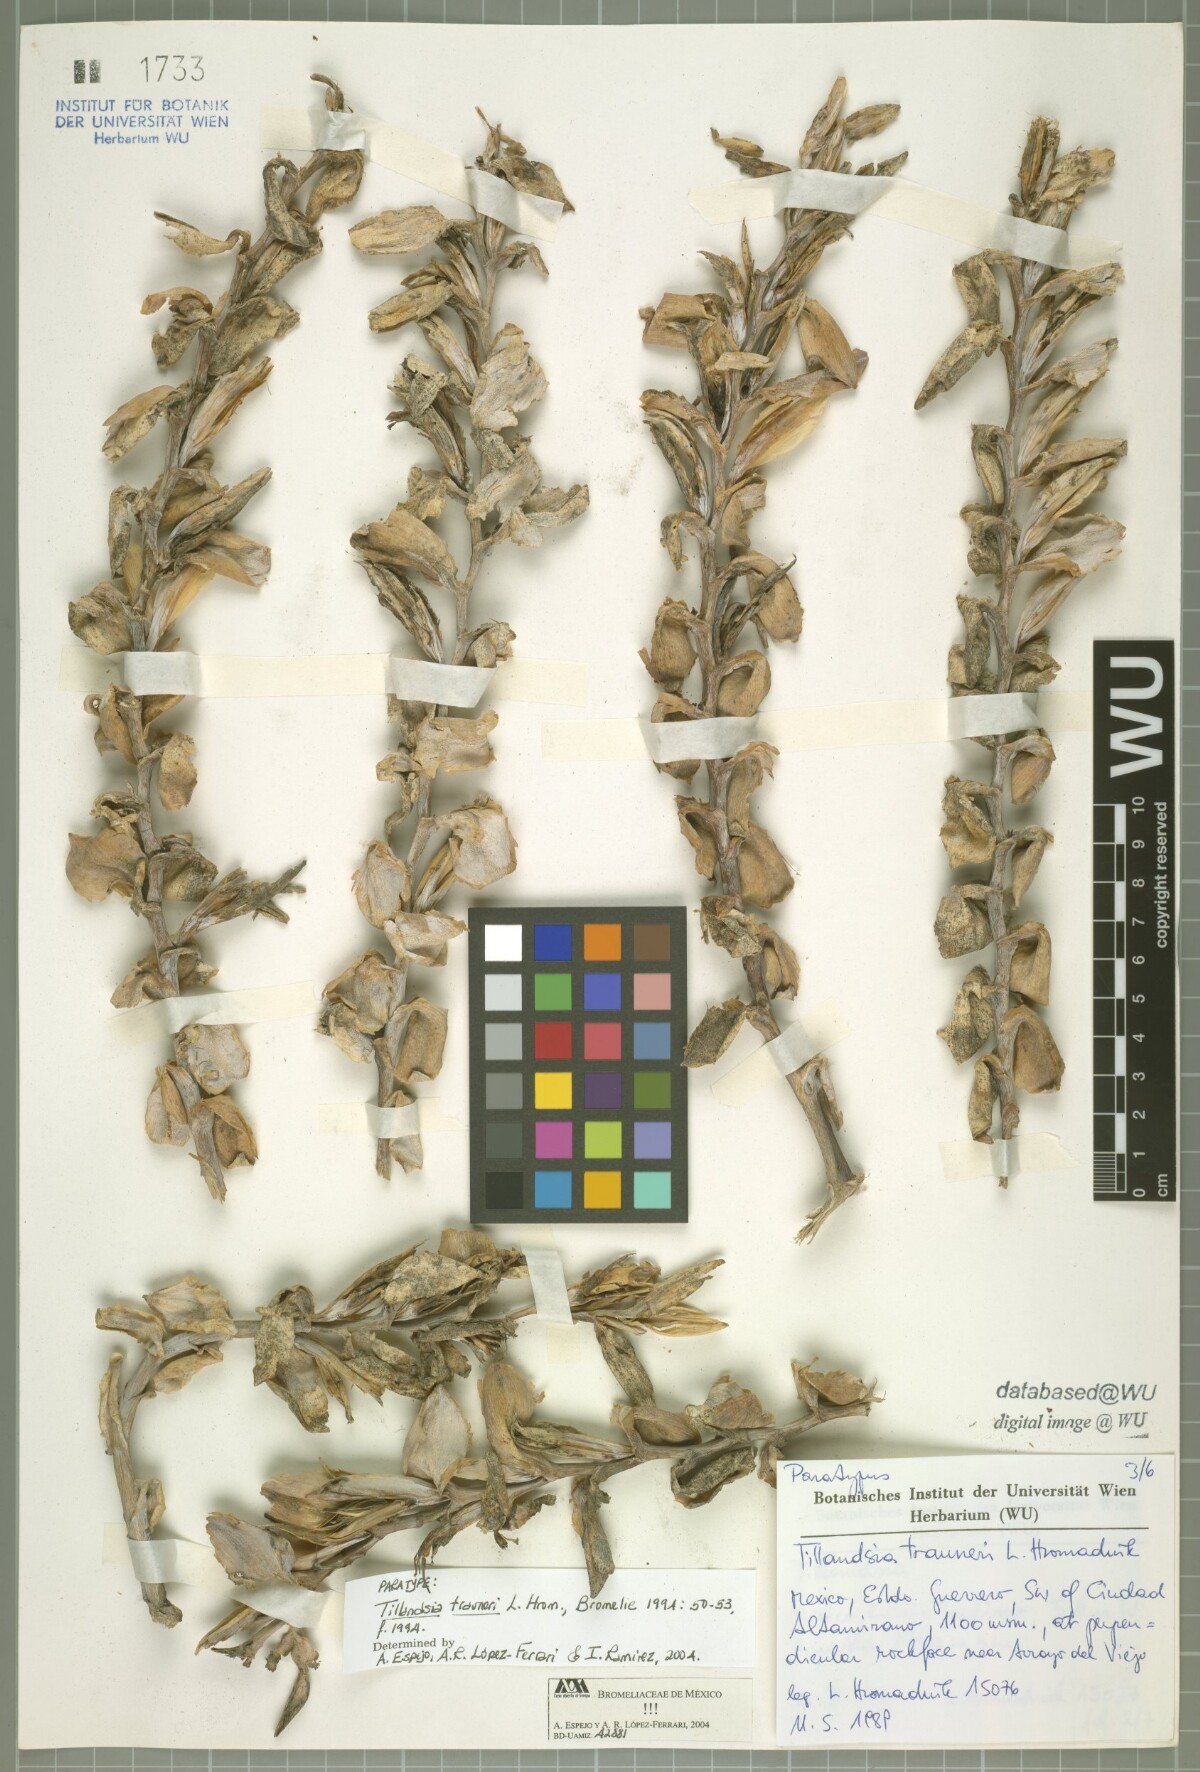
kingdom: Plantae
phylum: Tracheophyta
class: Liliopsida
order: Poales
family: Bromeliaceae
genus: Tillandsia
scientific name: Tillandsia trauneri
